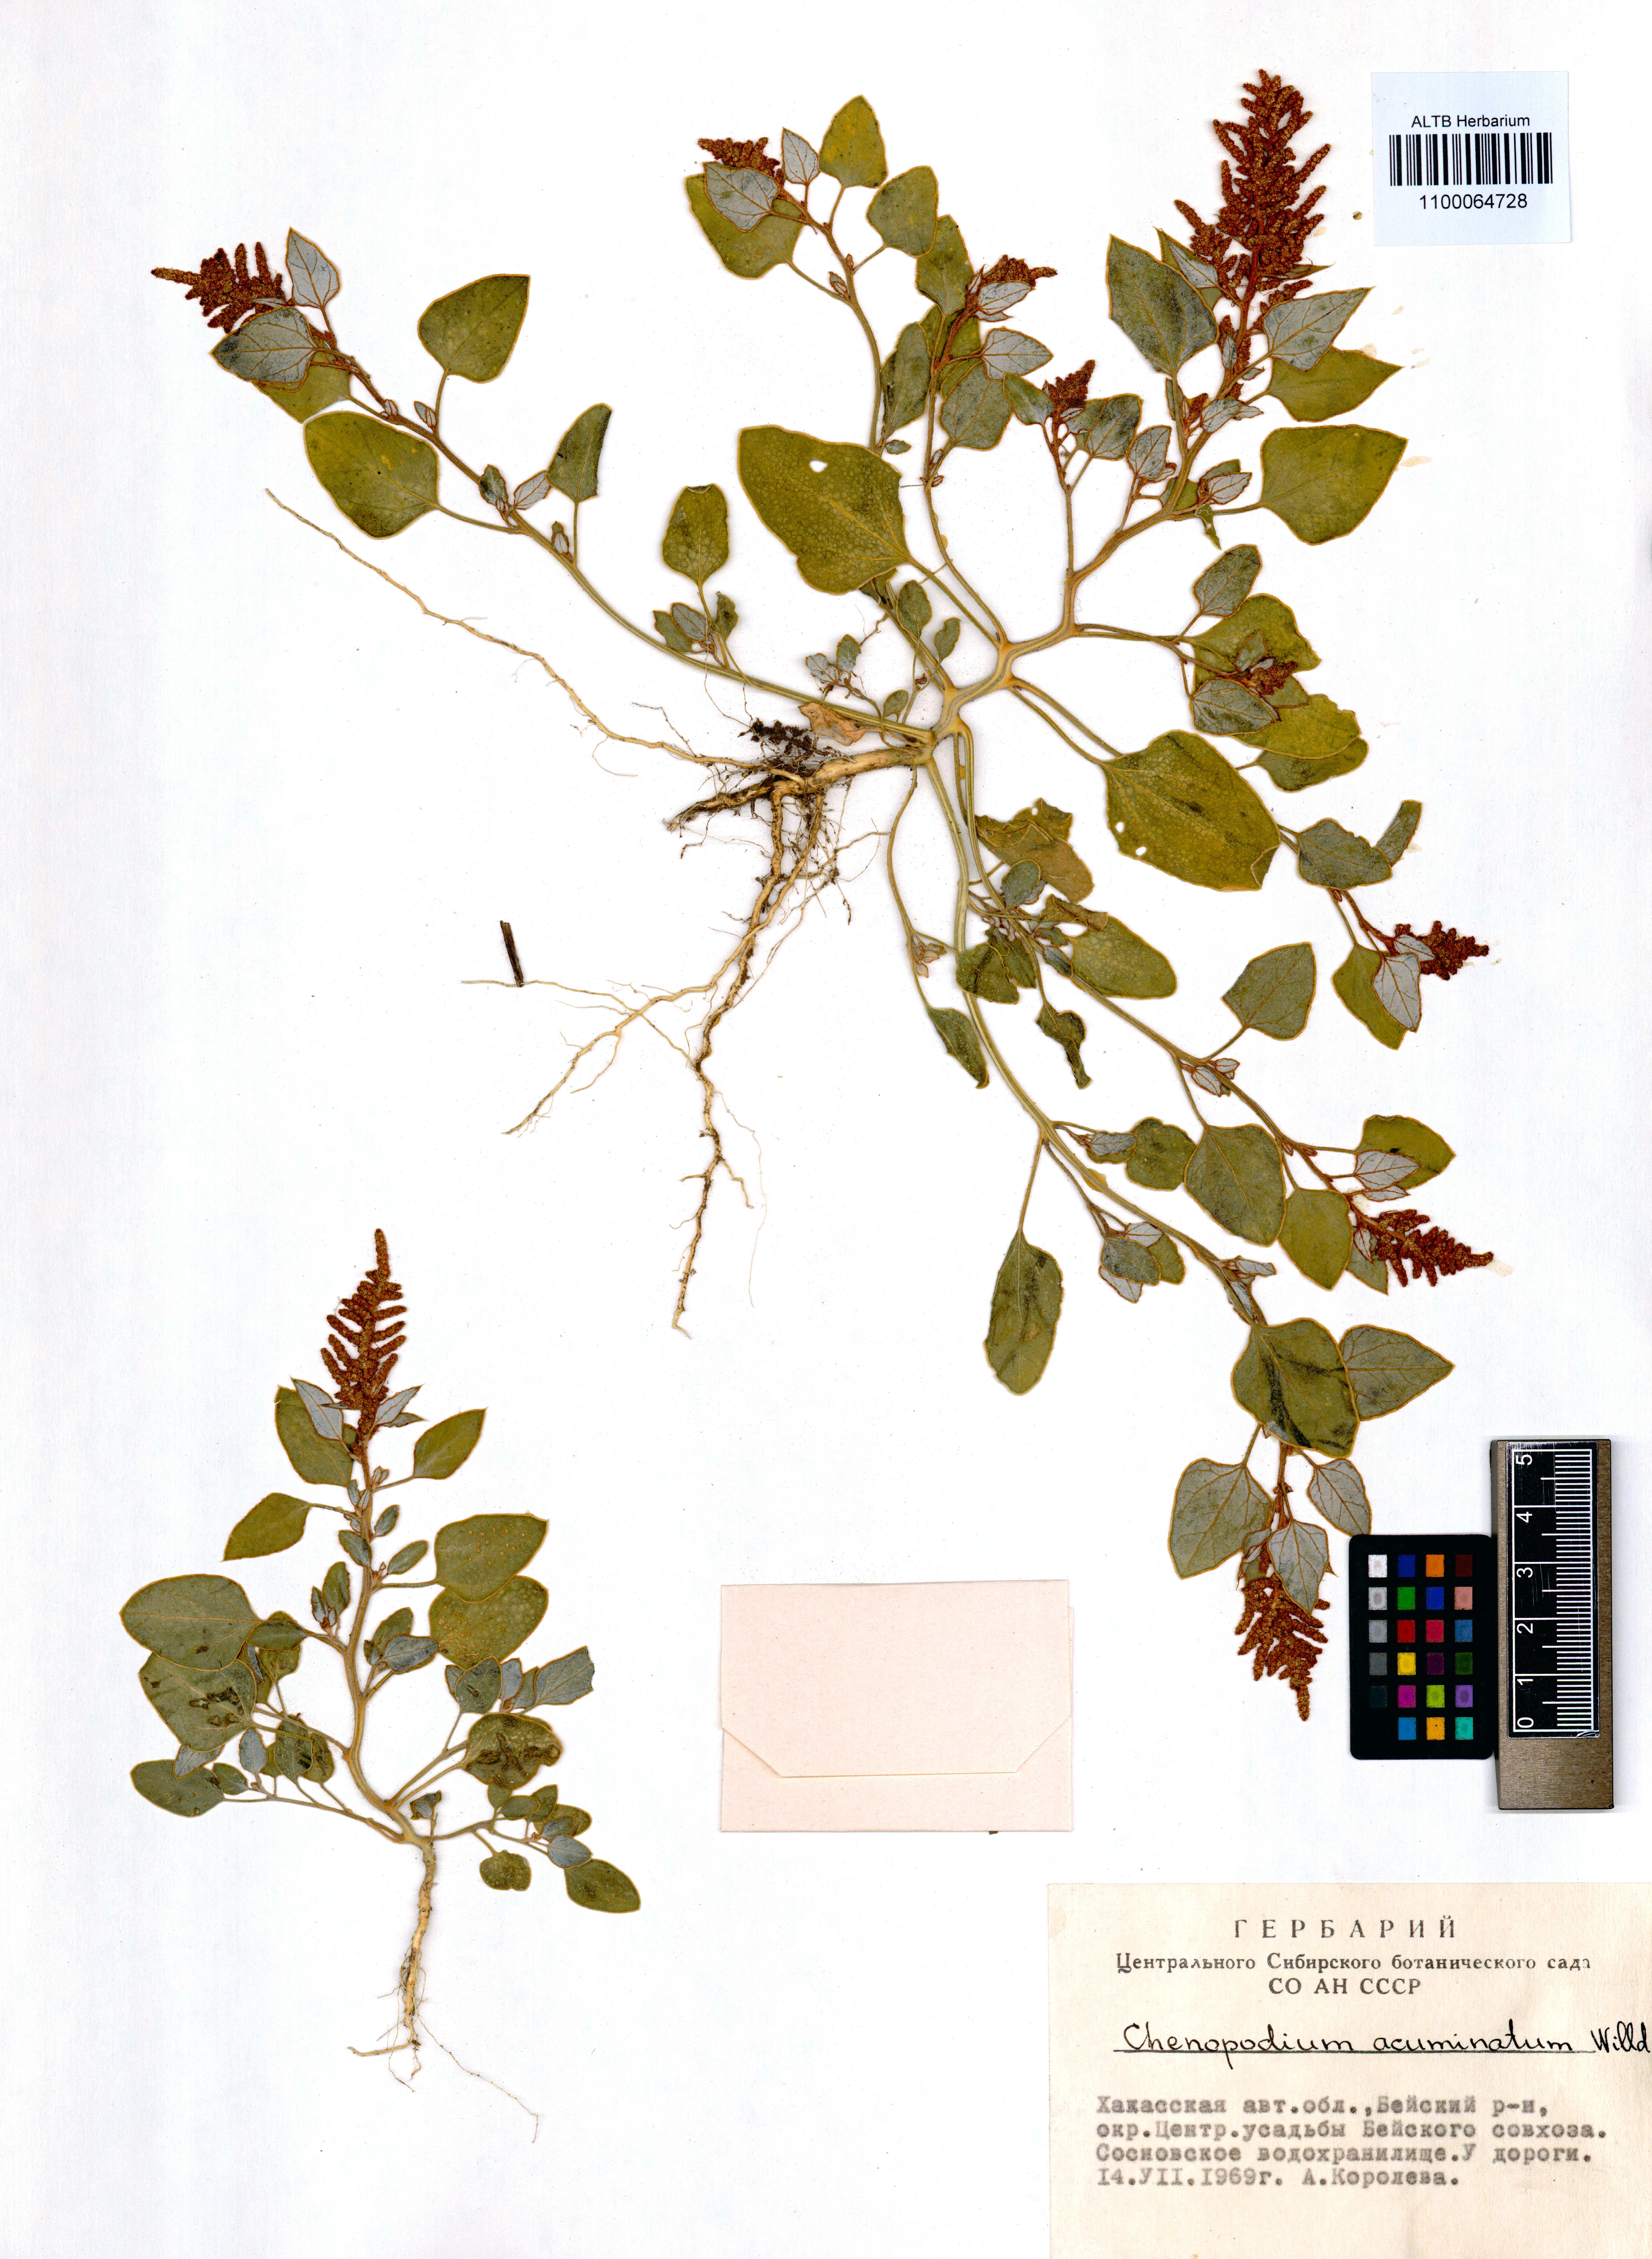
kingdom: Plantae
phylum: Tracheophyta
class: Magnoliopsida
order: Caryophyllales
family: Amaranthaceae
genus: Chenopodium
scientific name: Chenopodium acuminatum
